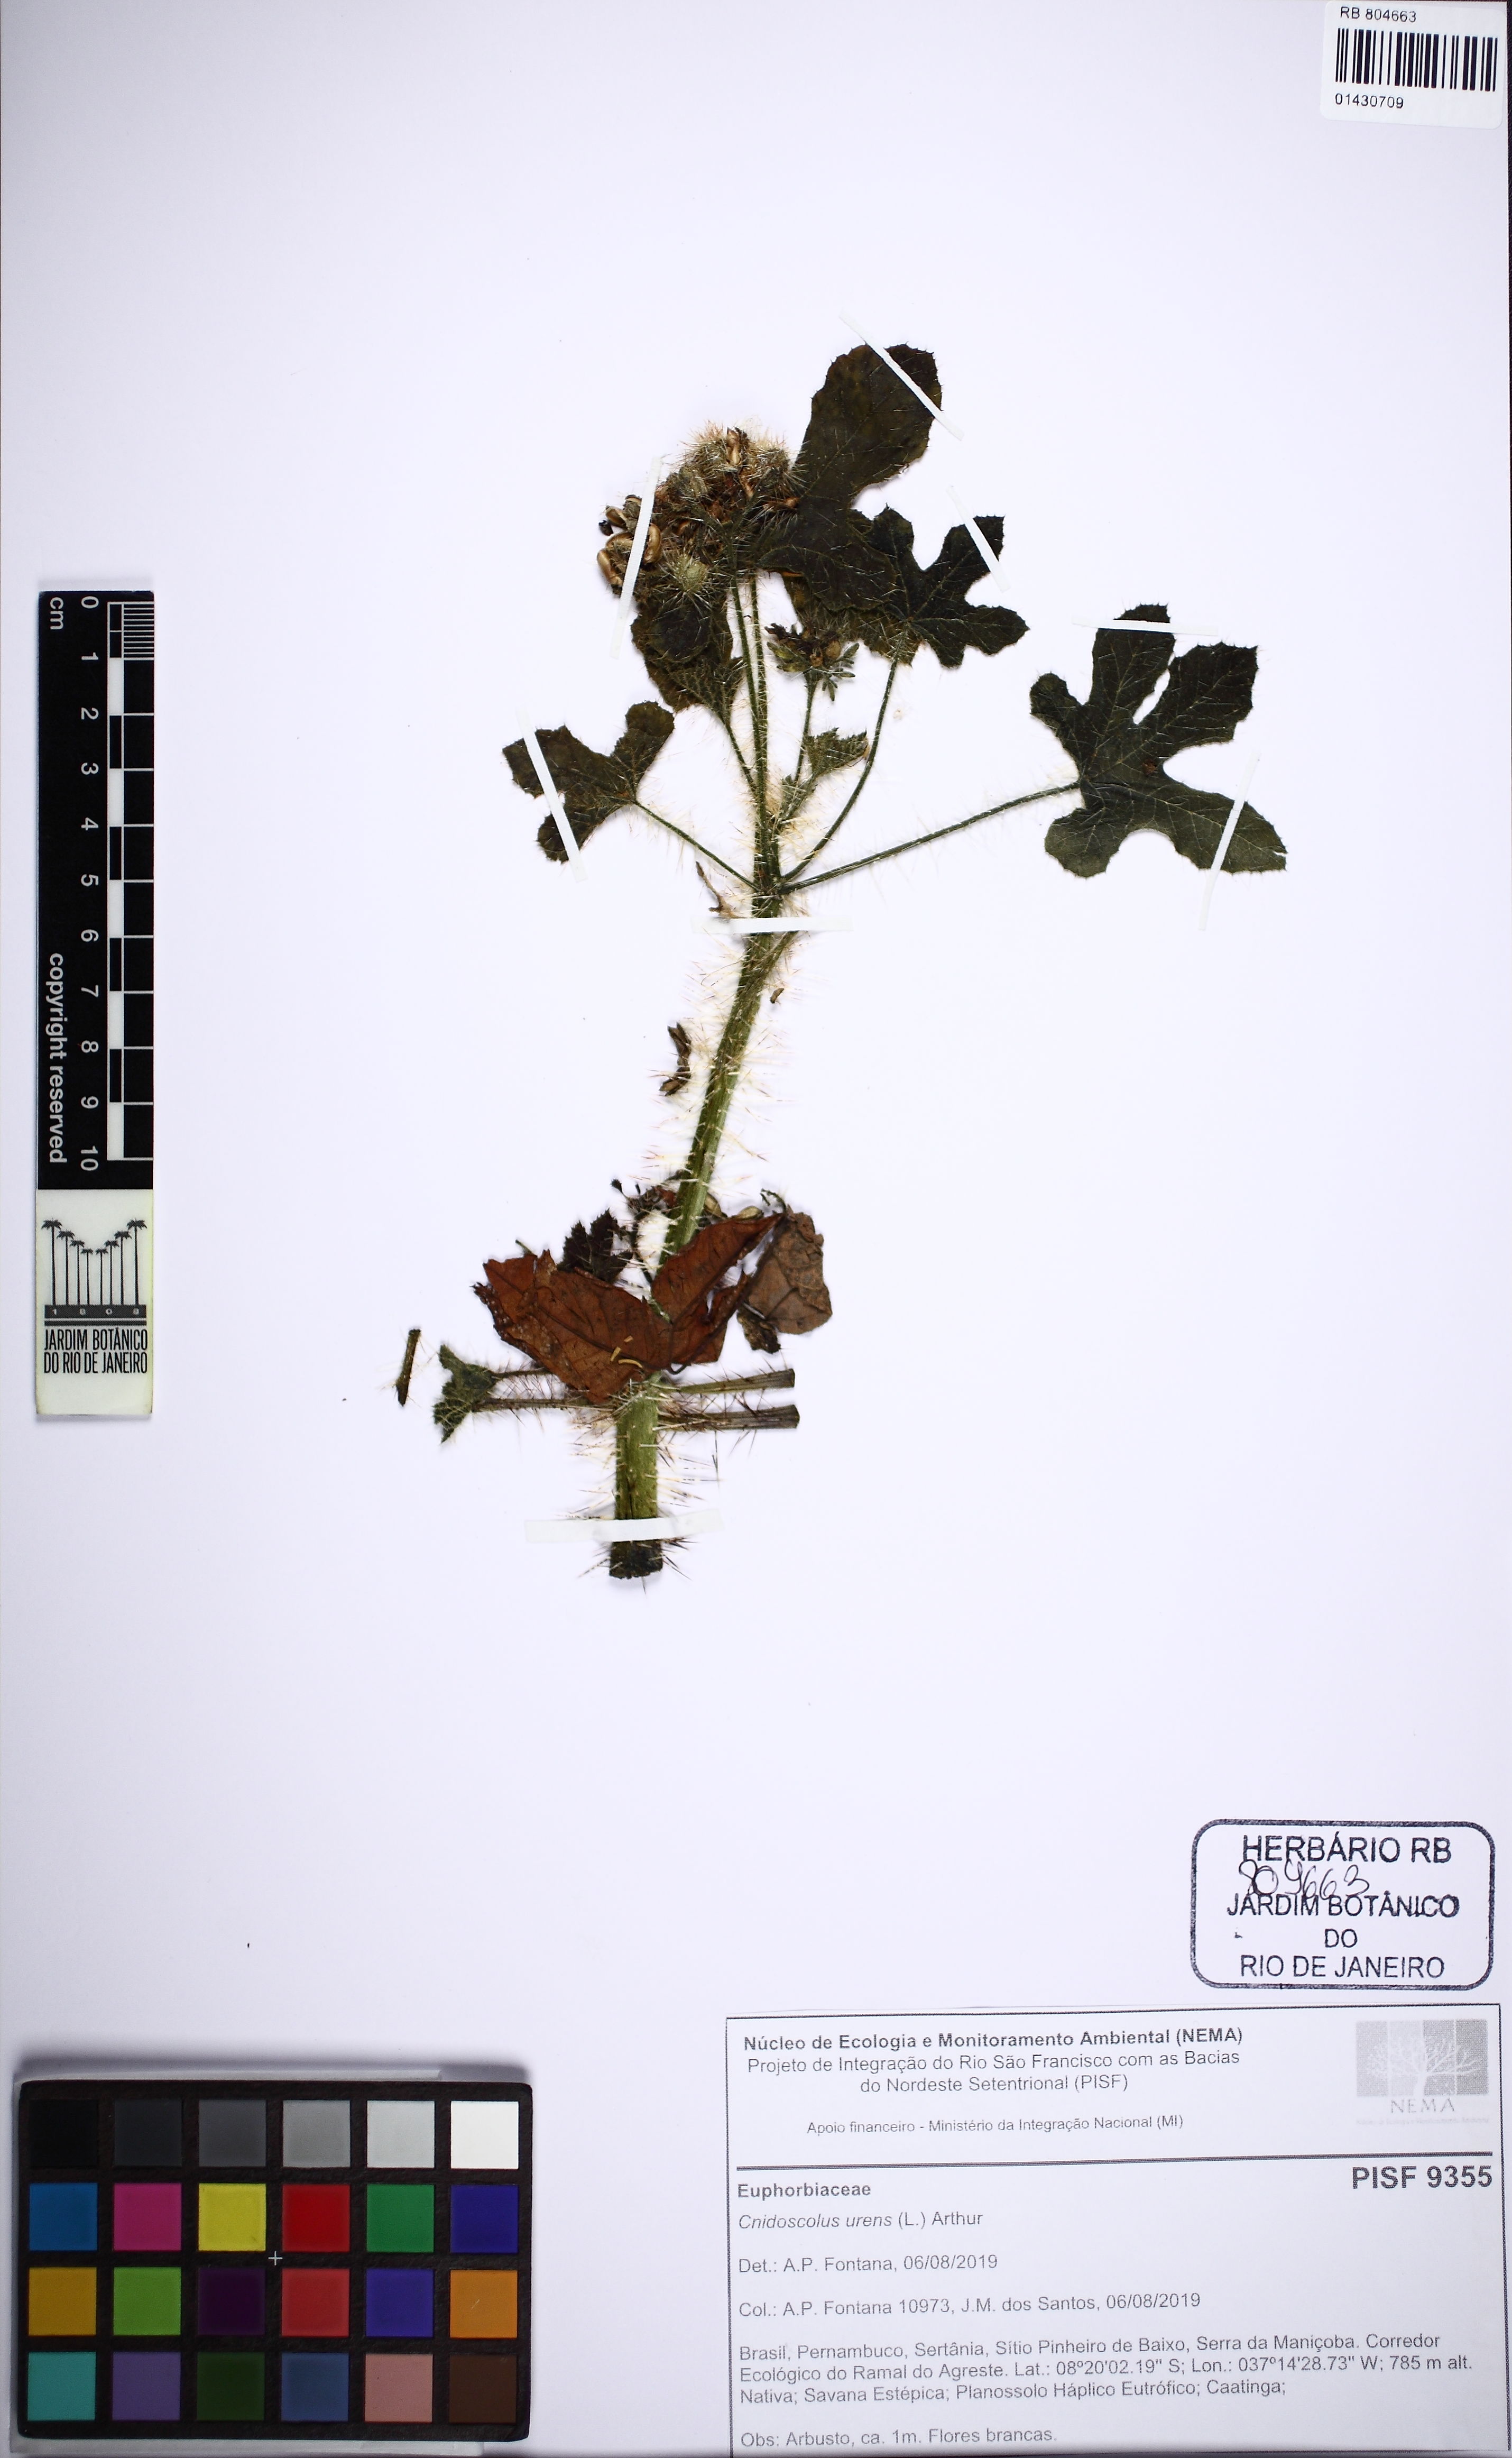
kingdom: Plantae
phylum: Tracheophyta
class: Magnoliopsida
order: Malpighiales
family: Euphorbiaceae
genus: Cnidoscolus
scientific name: Cnidoscolus urens
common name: Bull-nettle
